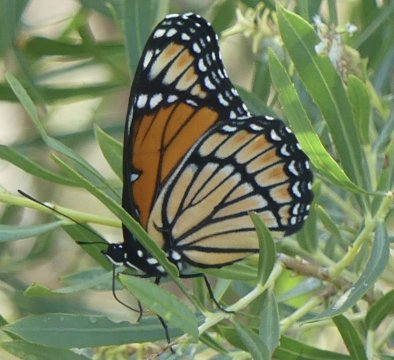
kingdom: Animalia
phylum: Arthropoda
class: Insecta
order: Lepidoptera
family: Nymphalidae
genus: Limenitis
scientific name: Limenitis archippus
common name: Viceroy
